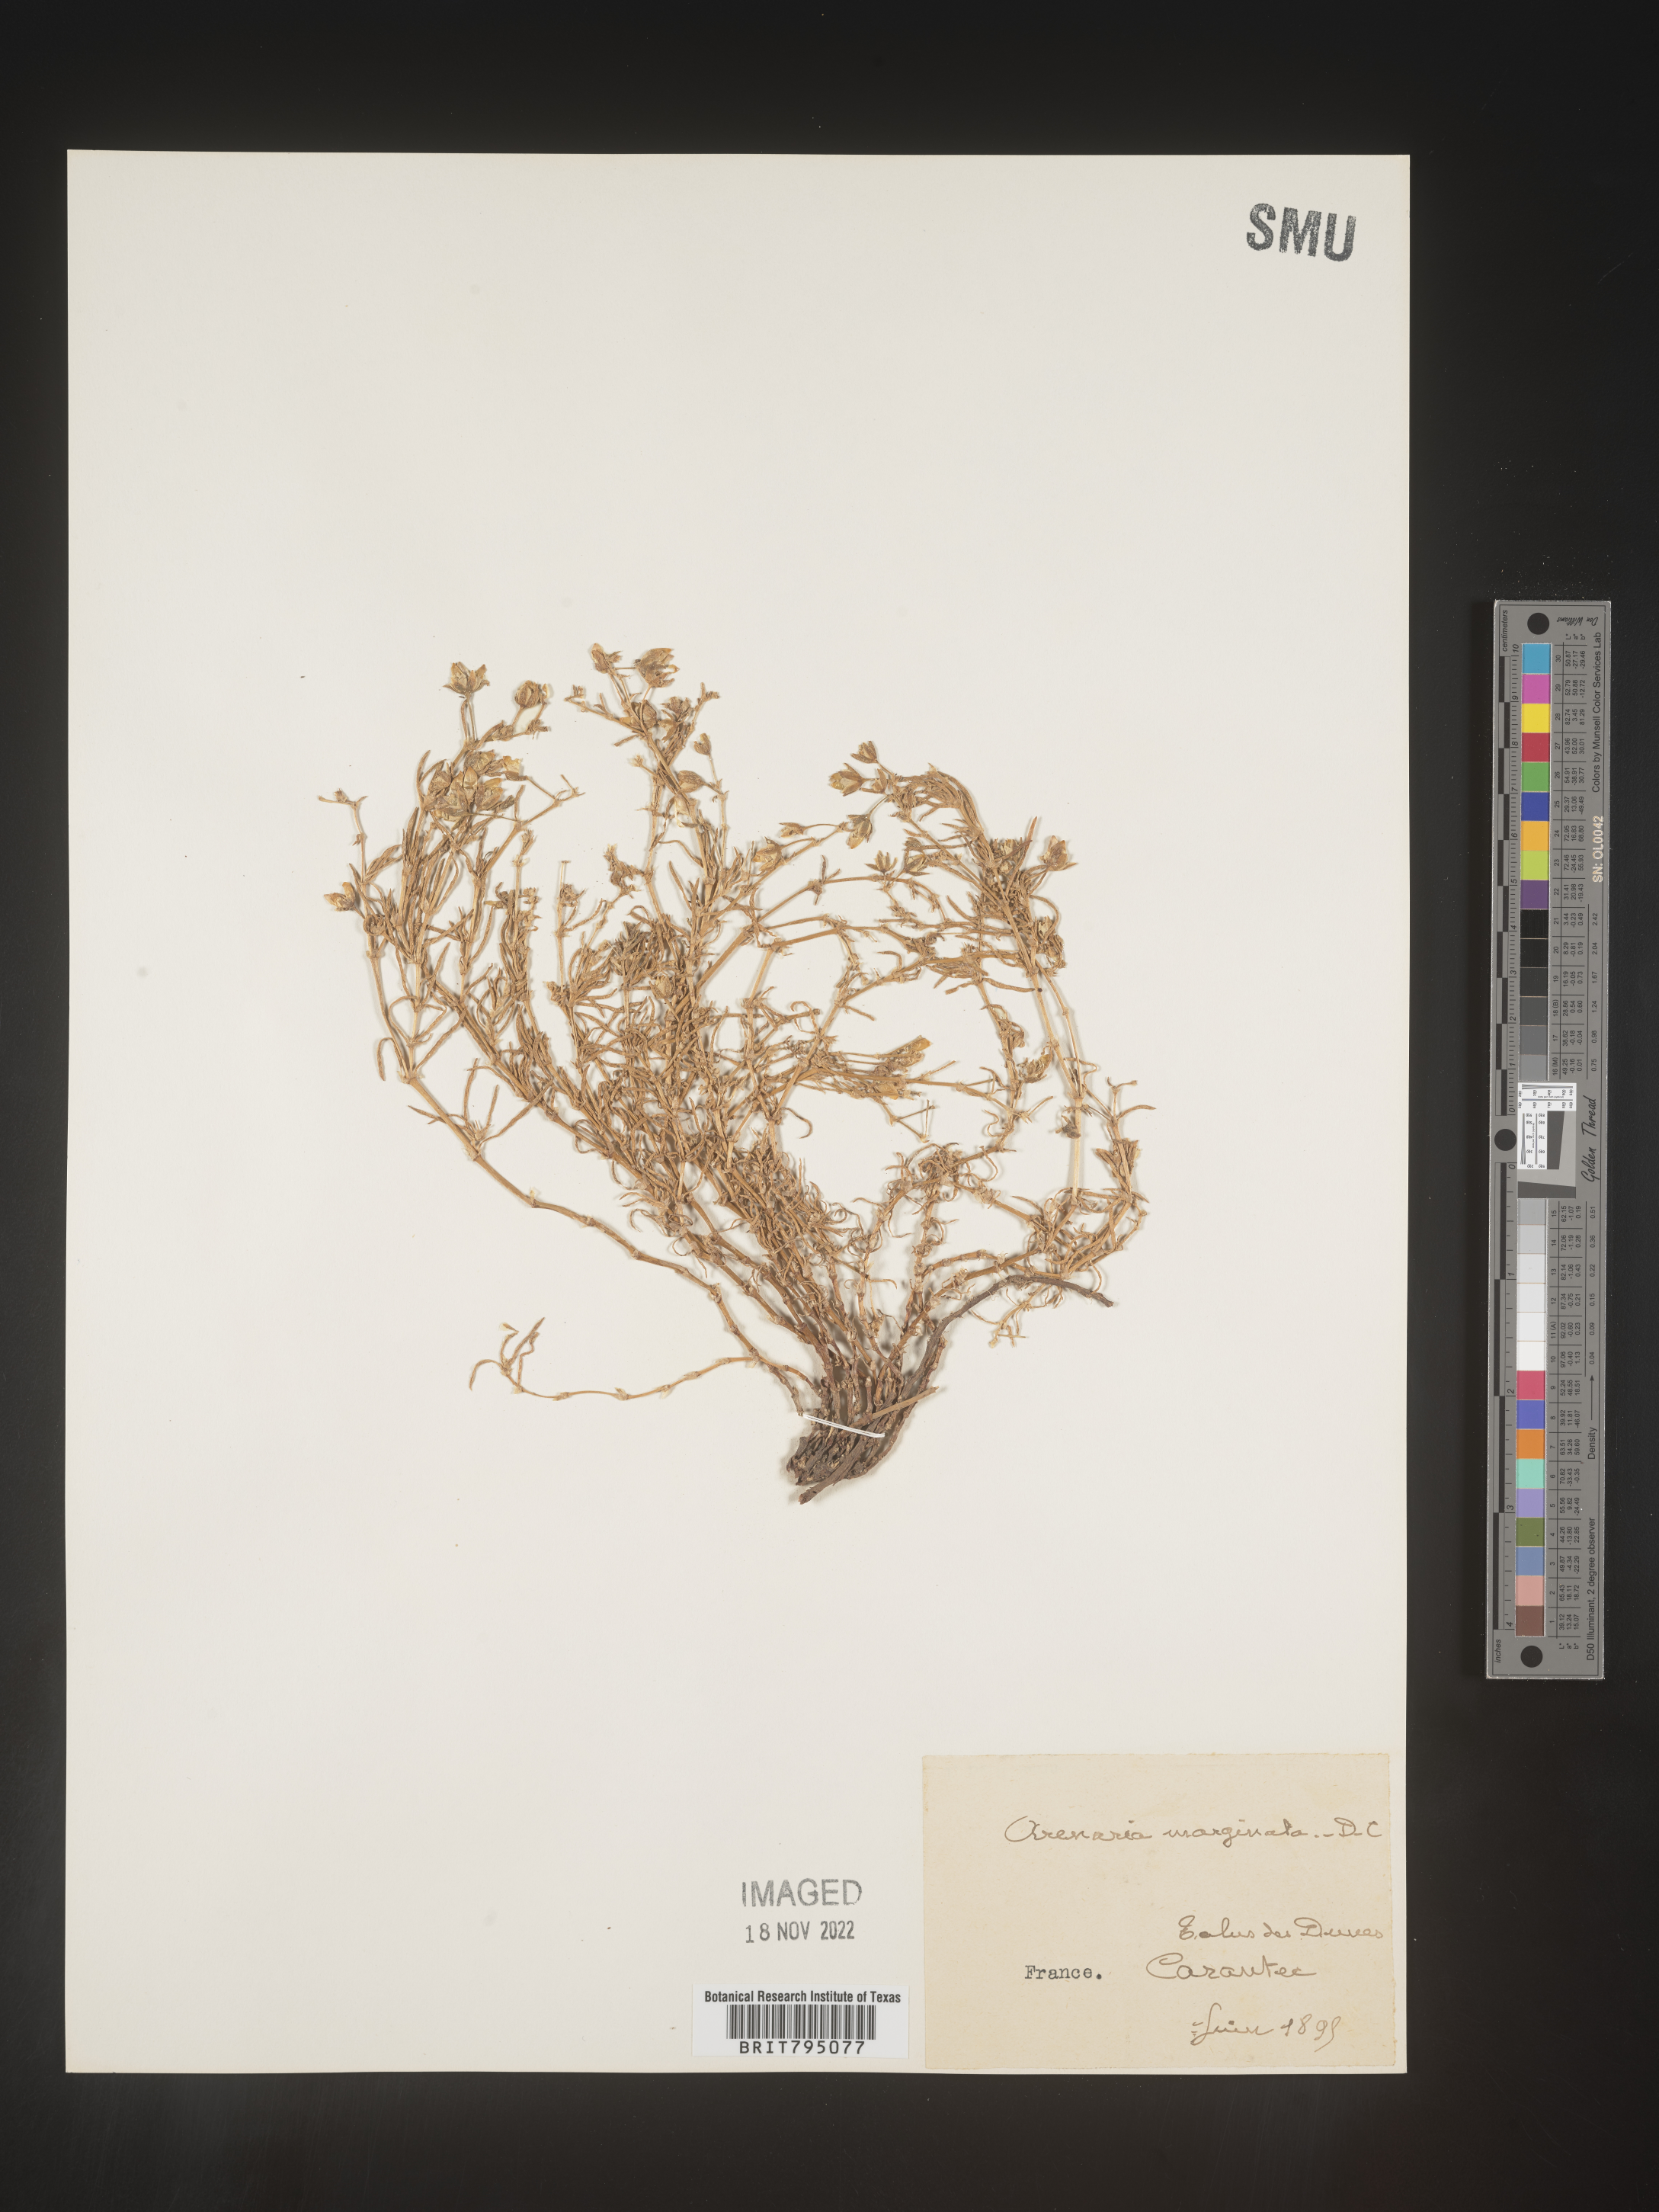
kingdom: Plantae
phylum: Tracheophyta
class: Magnoliopsida
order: Caryophyllales
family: Caryophyllaceae
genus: Spergularia
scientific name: Spergularia media
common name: Greater sea-spurrey
